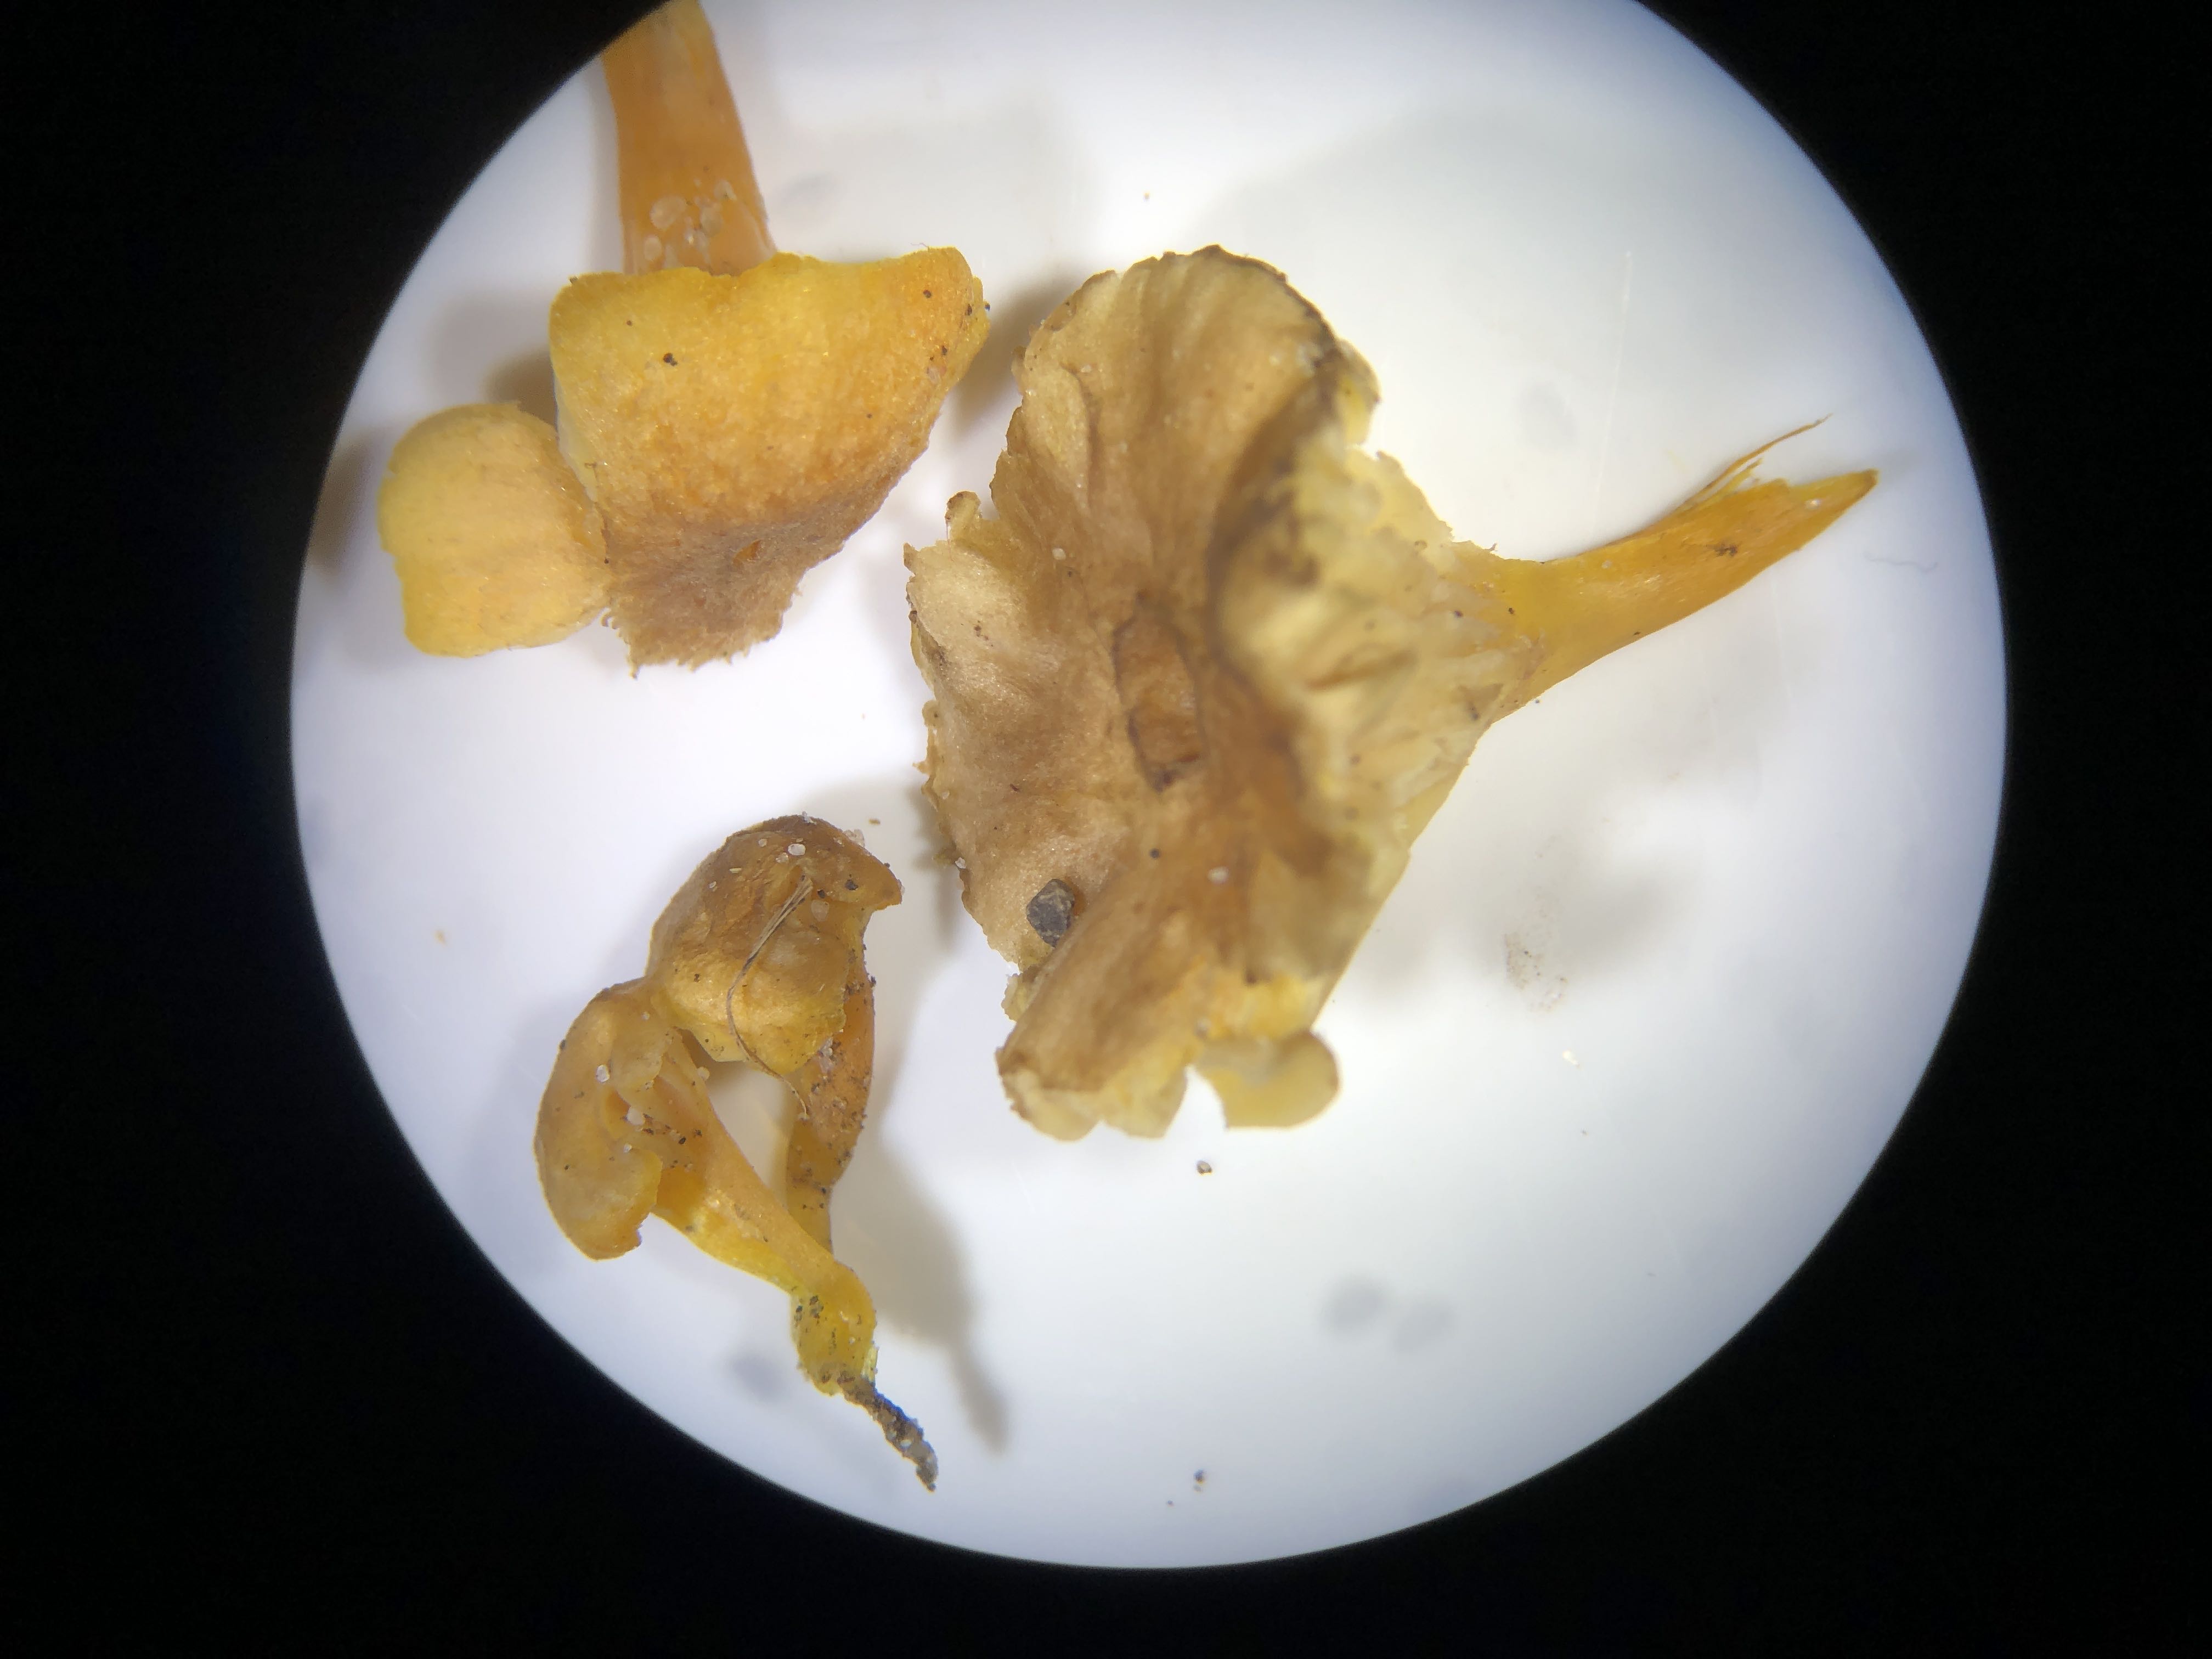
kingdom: Fungi
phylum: Basidiomycota
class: Agaricomycetes
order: Agaricales
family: Hygrophoraceae
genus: Hygrocybe
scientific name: Hygrocybe turunda
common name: sortskællet vokshat
